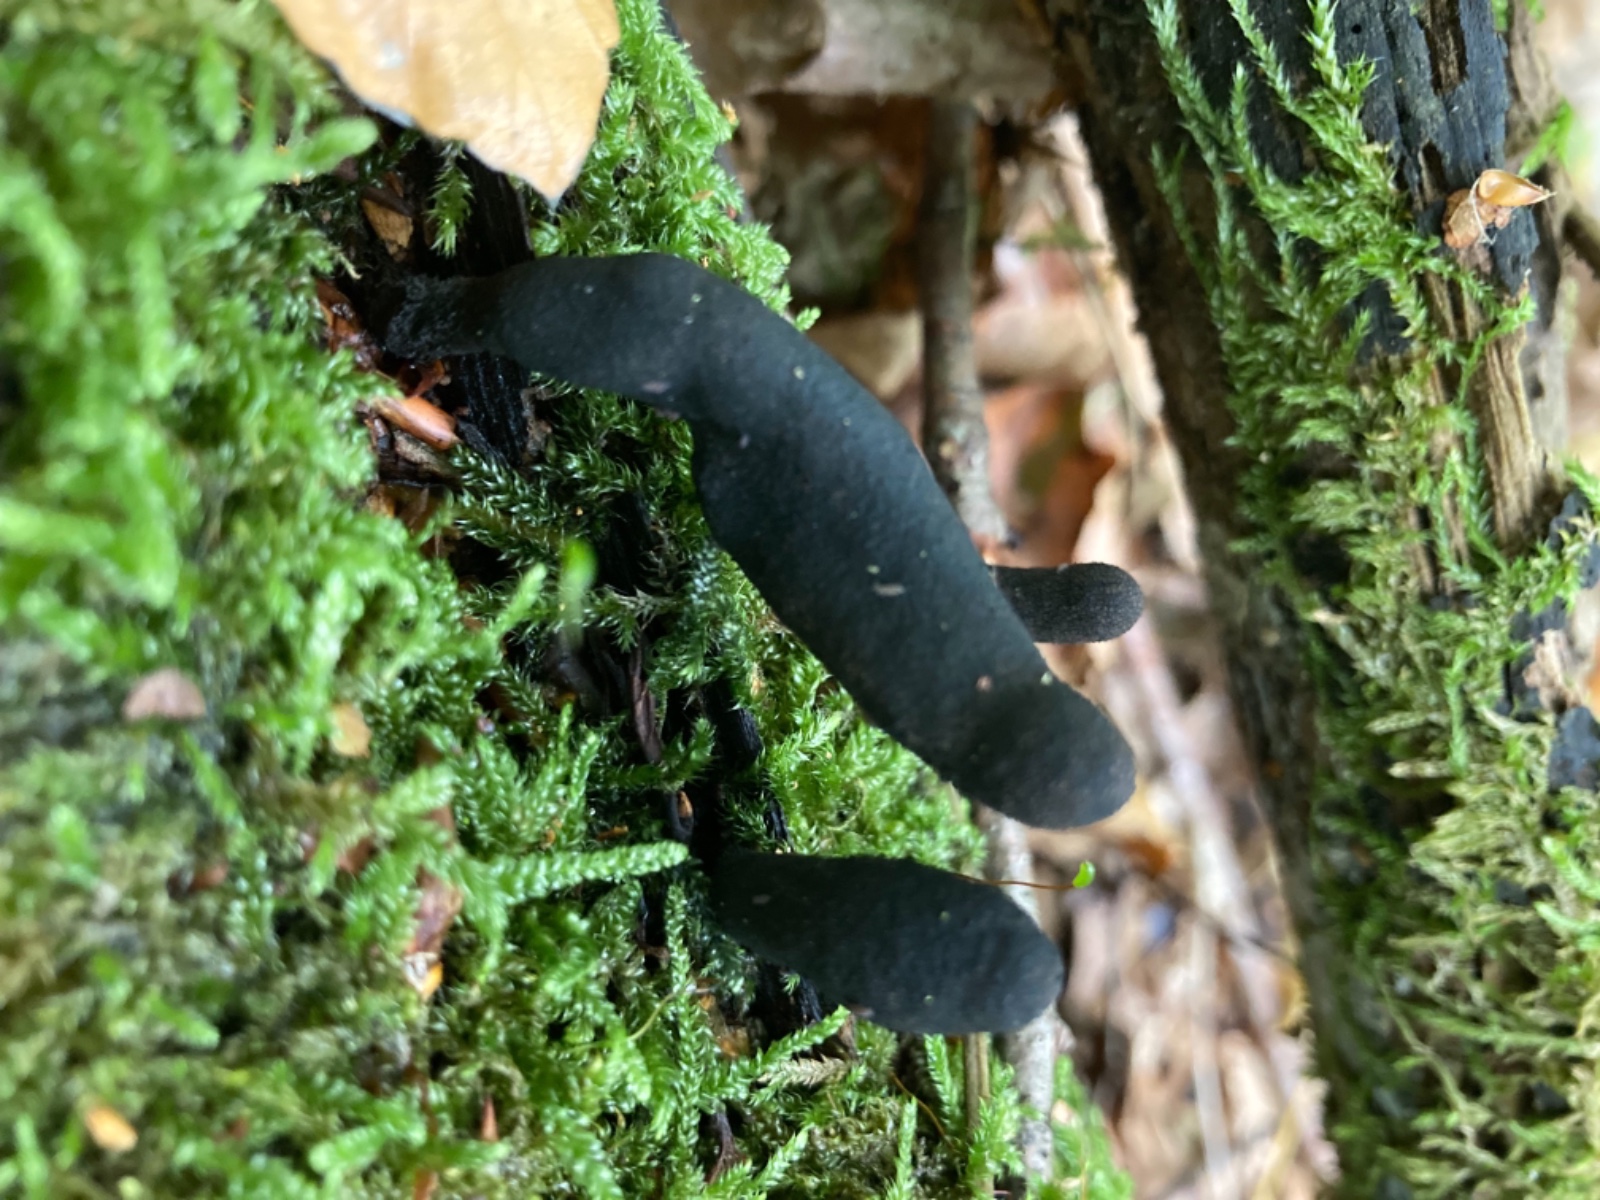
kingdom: Fungi
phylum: Ascomycota
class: Sordariomycetes
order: Xylariales
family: Xylariaceae
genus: Xylaria
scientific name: Xylaria longipes
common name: slank stødsvamp
